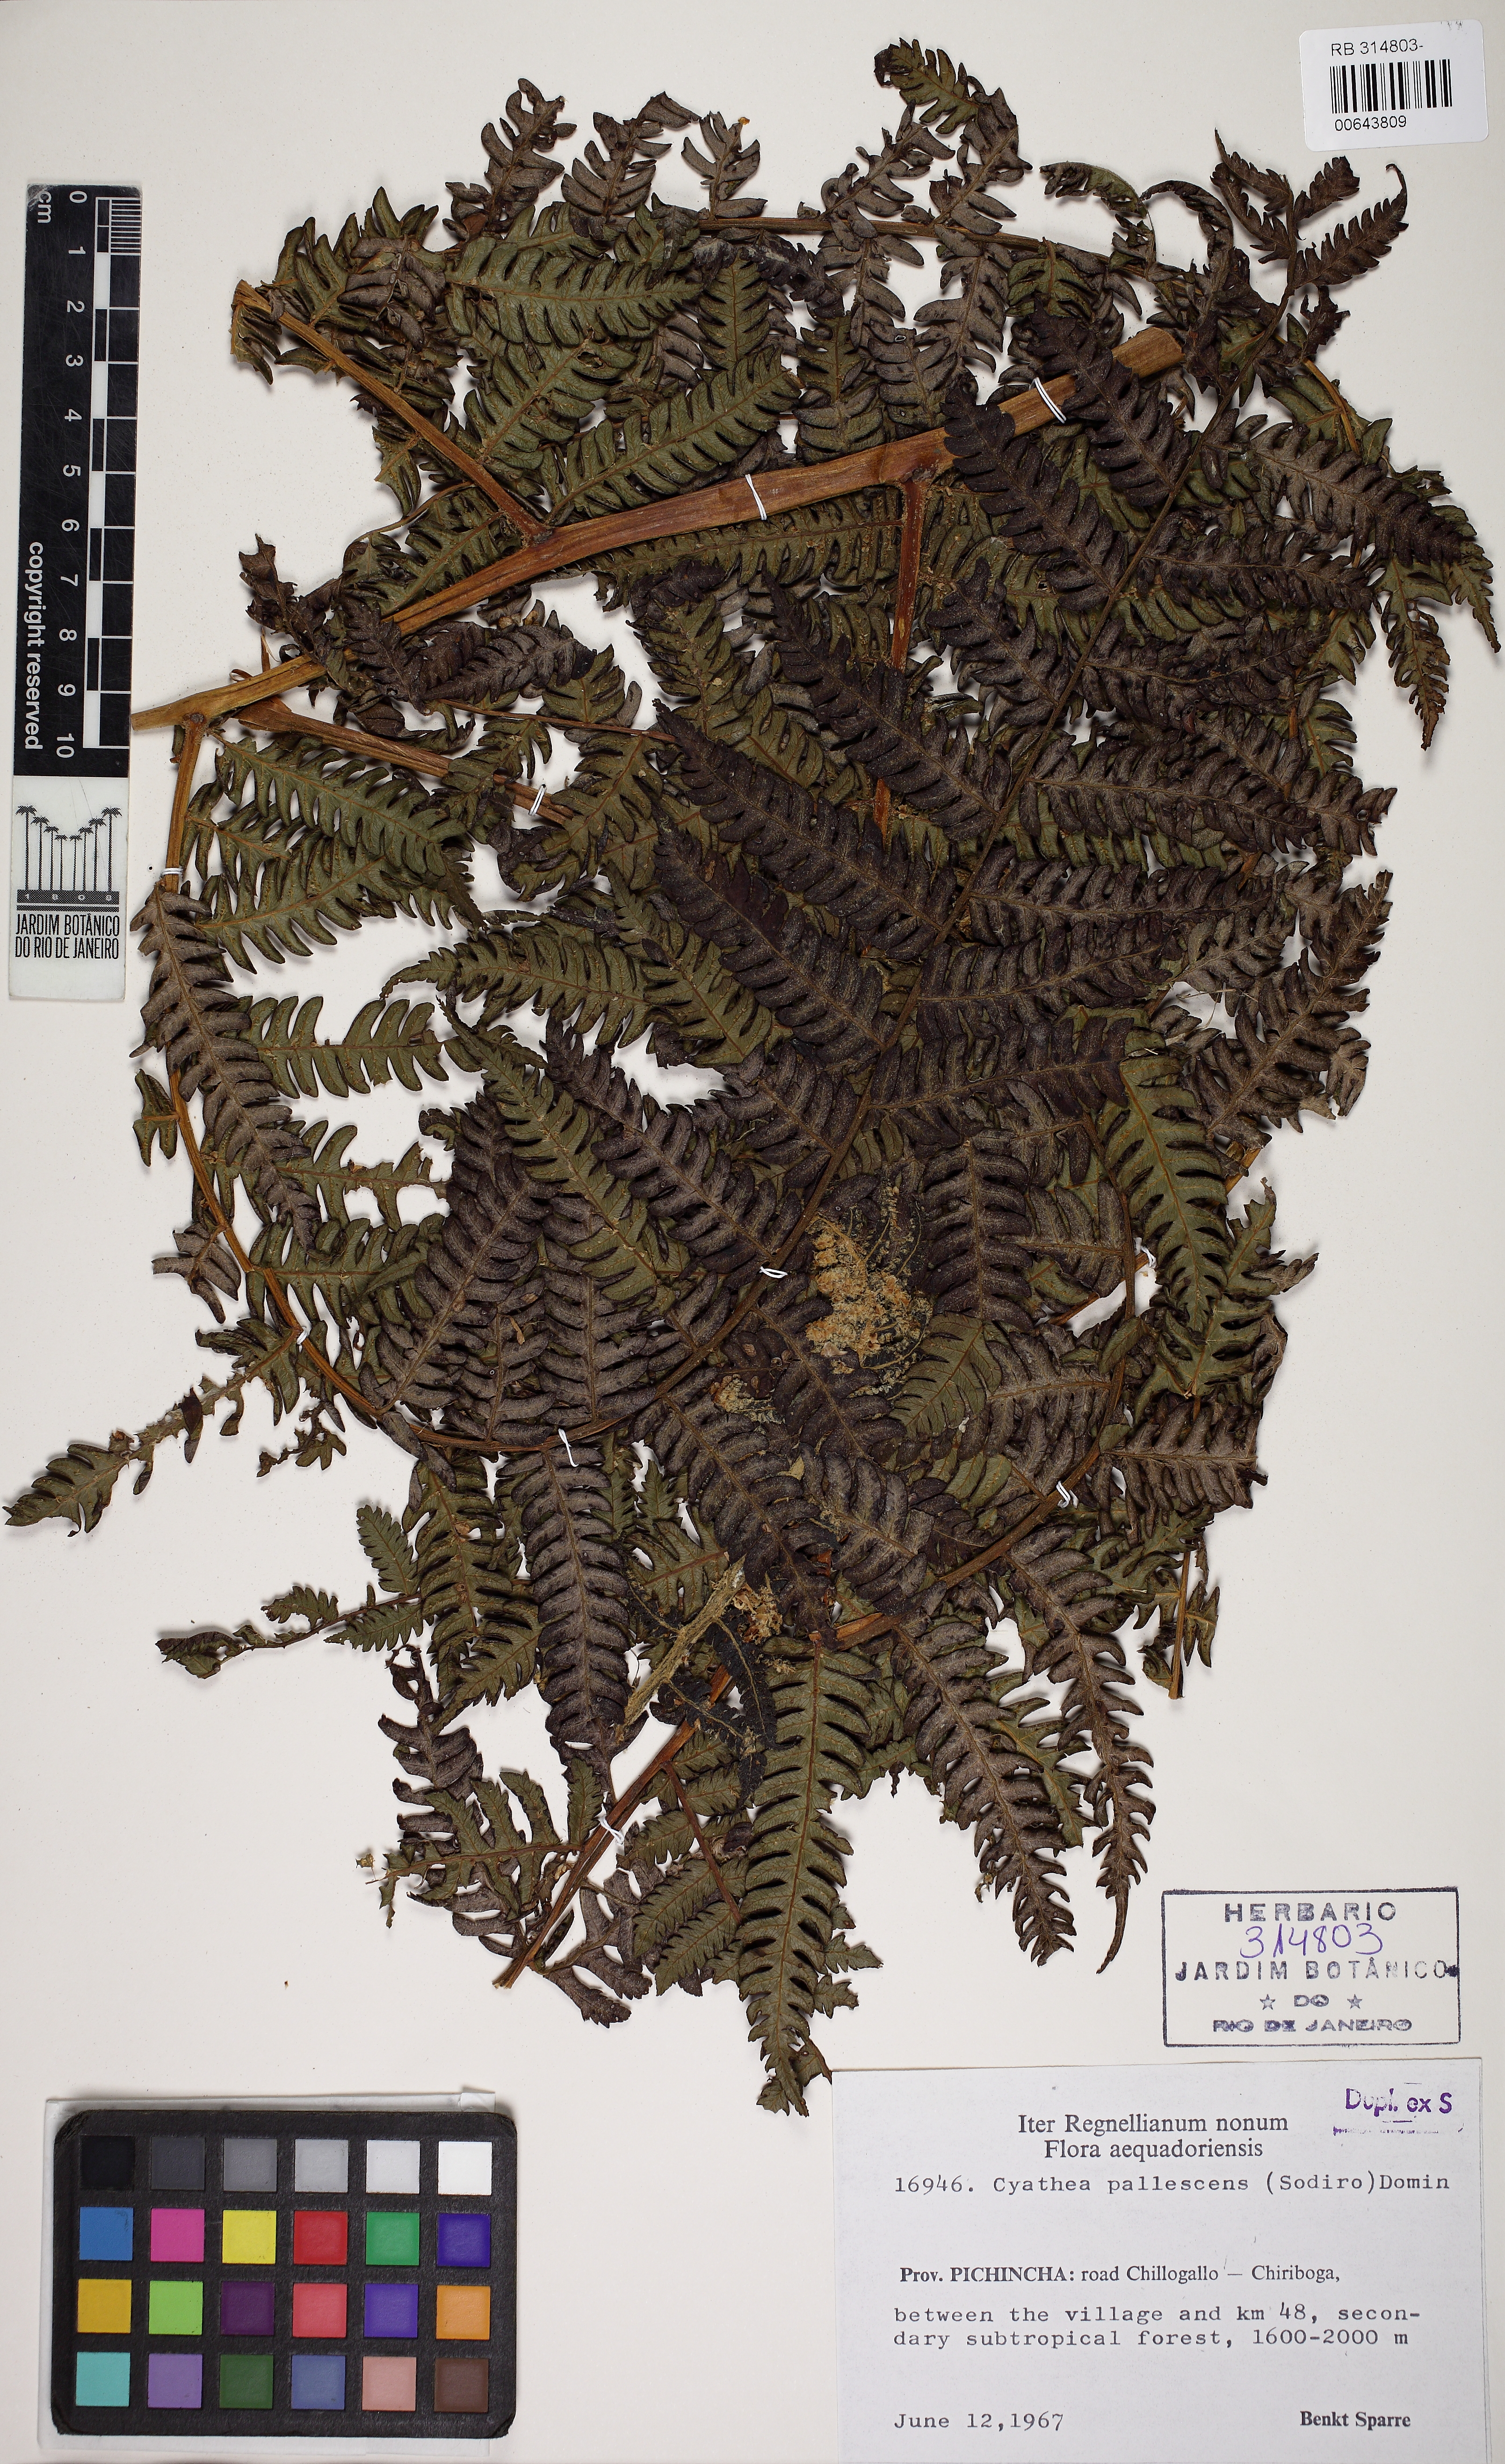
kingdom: Plantae
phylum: Tracheophyta
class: Polypodiopsida
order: Cyatheales
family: Cyatheaceae
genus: Cyathea
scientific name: Cyathea pallescens
